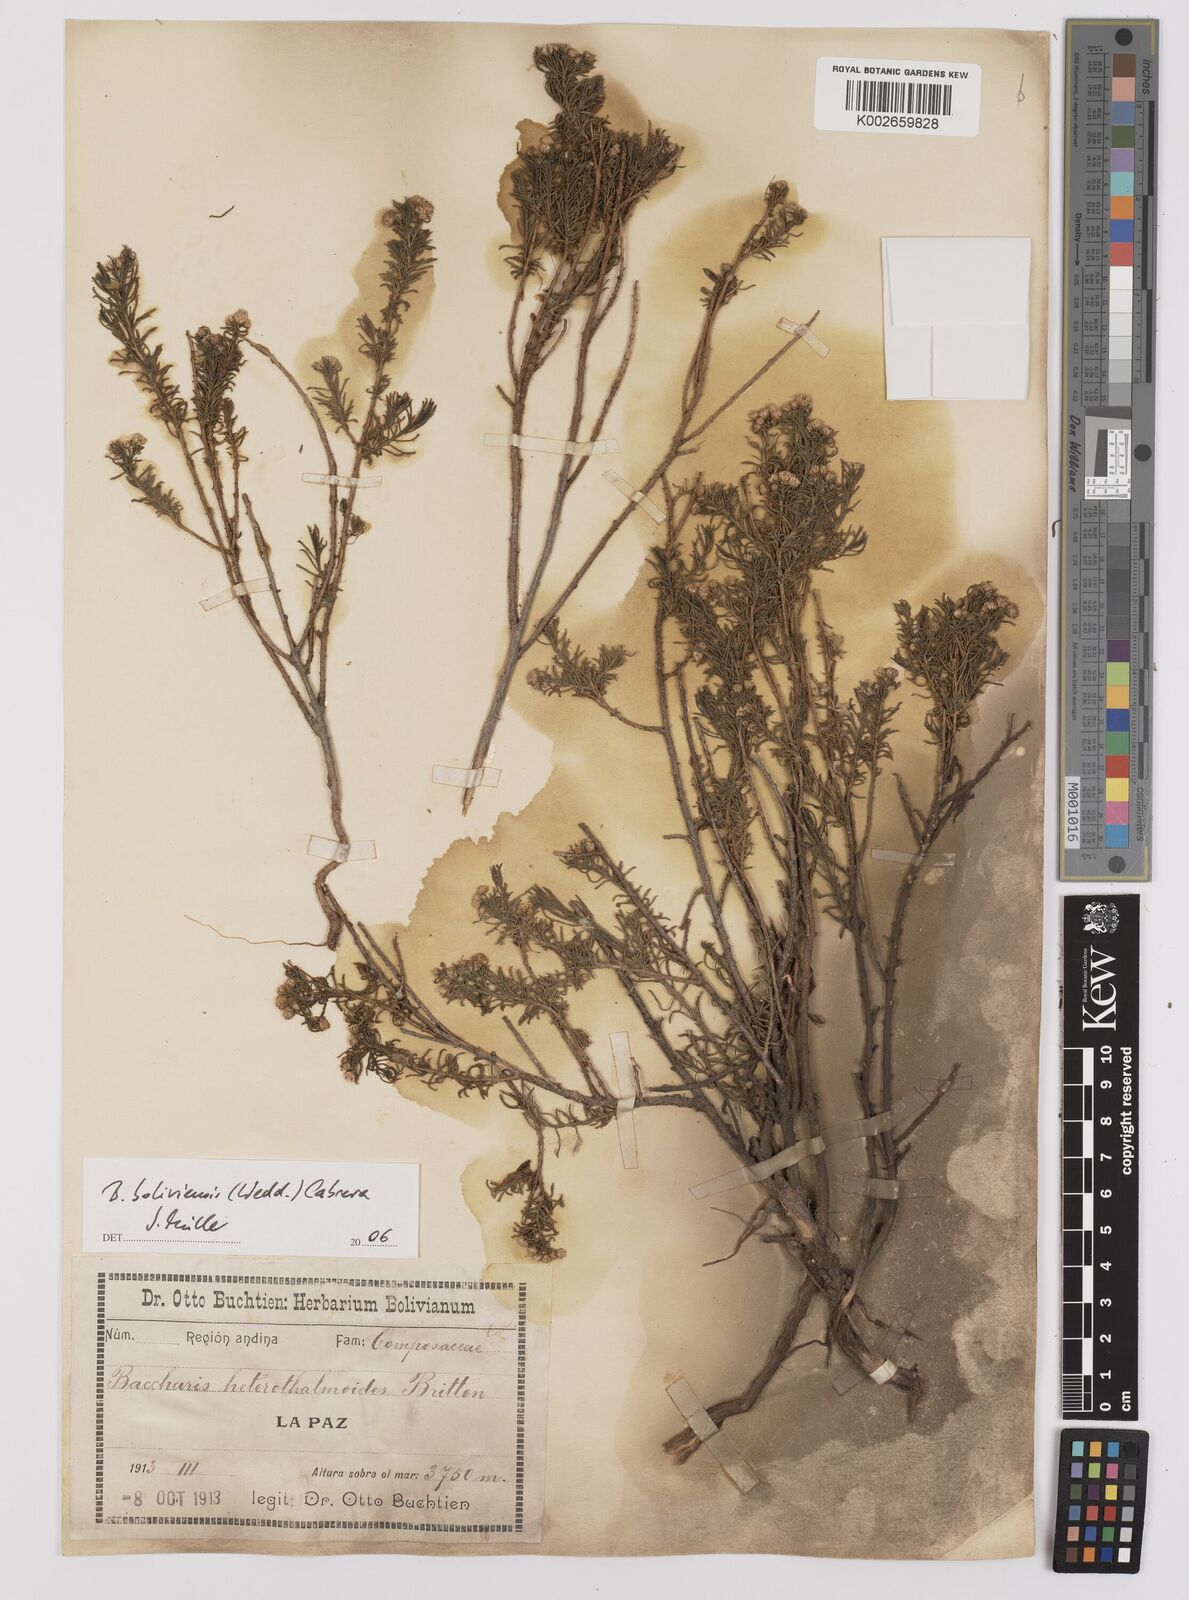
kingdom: Plantae
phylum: Tracheophyta
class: Magnoliopsida
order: Asterales
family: Asteraceae
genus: Baccharis
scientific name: Baccharis bolivensis
